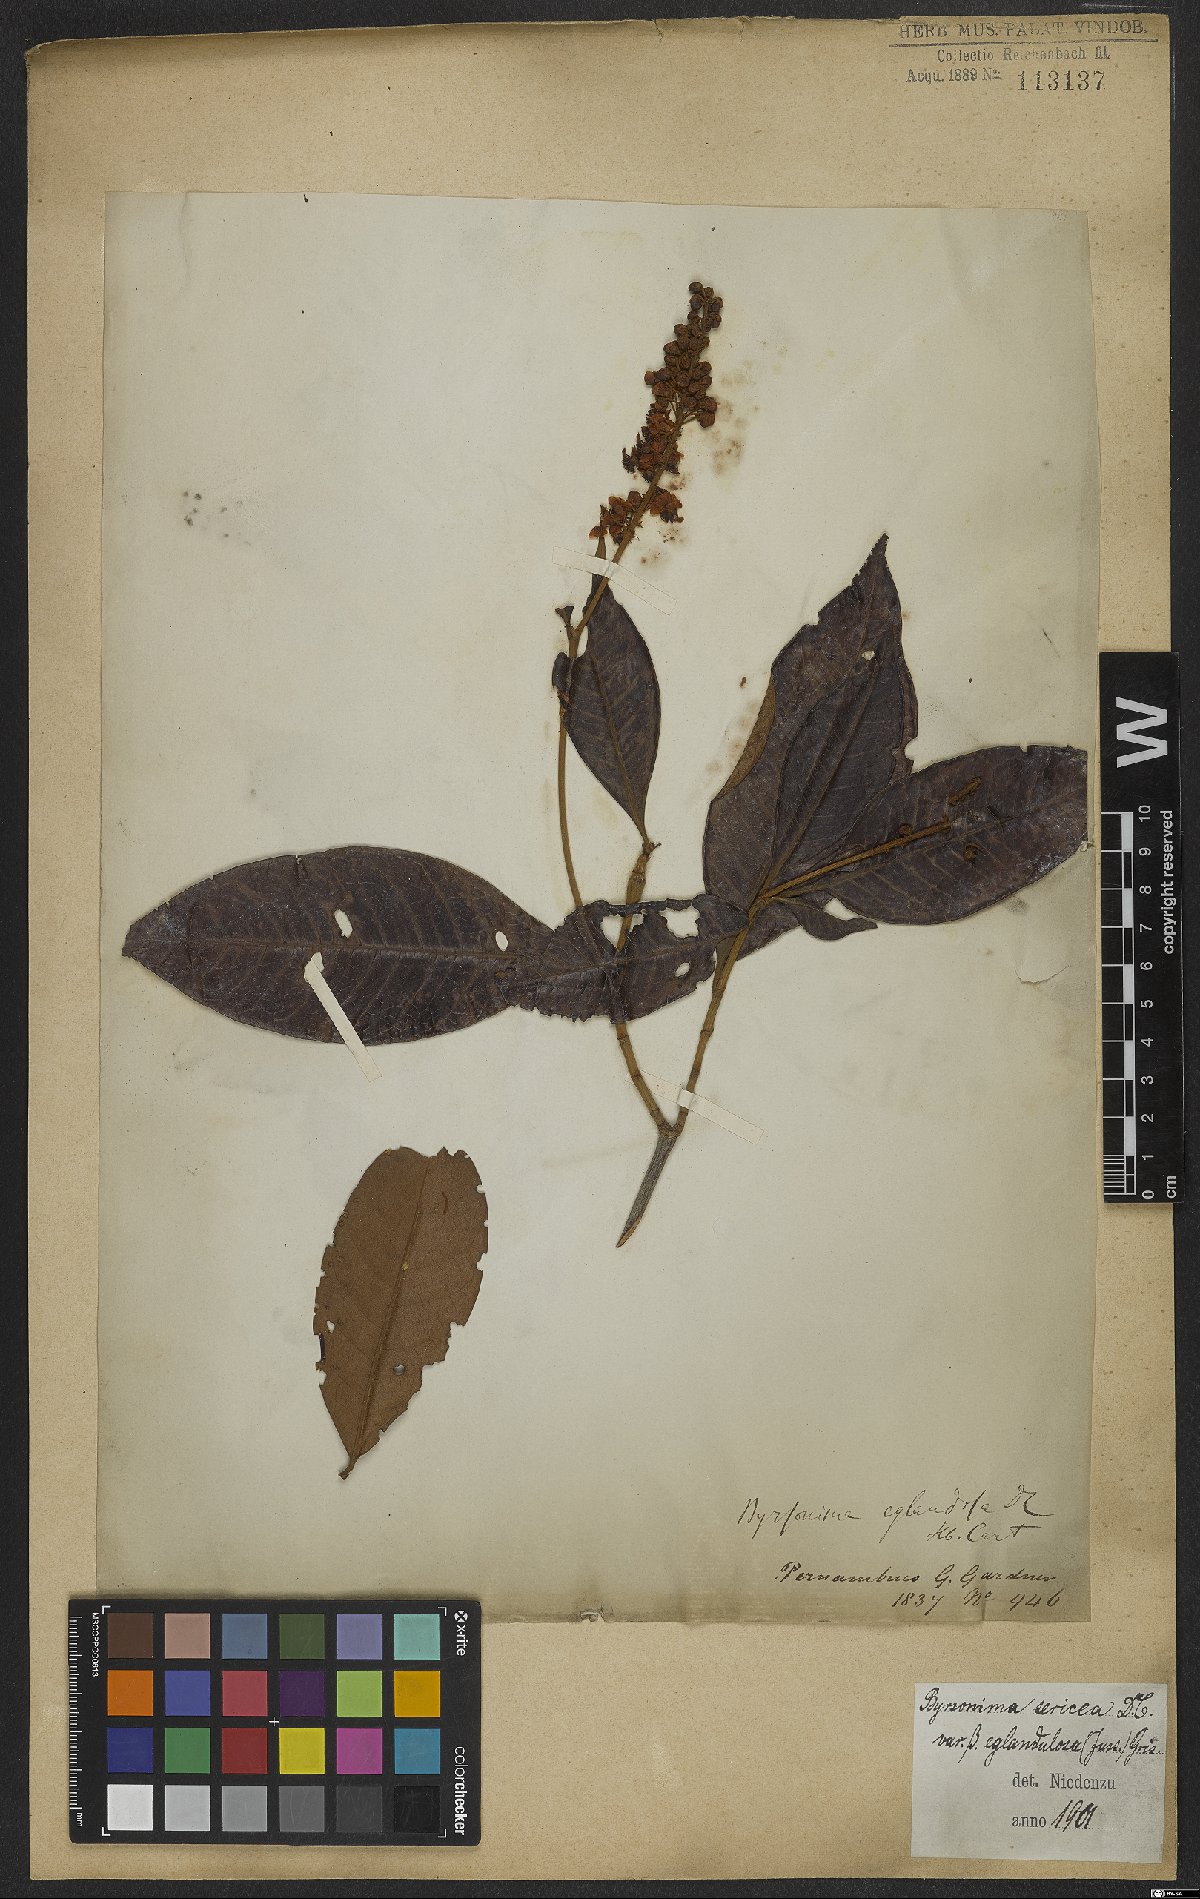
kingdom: Plantae
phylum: Tracheophyta
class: Magnoliopsida
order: Malpighiales
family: Malpighiaceae
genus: Byrsonima
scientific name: Byrsonima sericea
